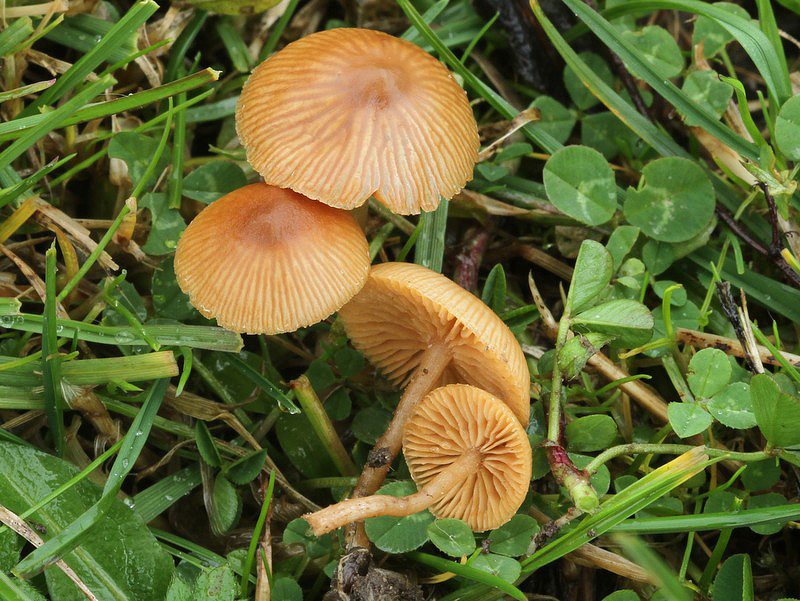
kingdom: Fungi
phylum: Basidiomycota
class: Agaricomycetes
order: Agaricales
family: Tubariaceae
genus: Tubaria
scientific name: Tubaria furfuracea
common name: kliddet fnughat
